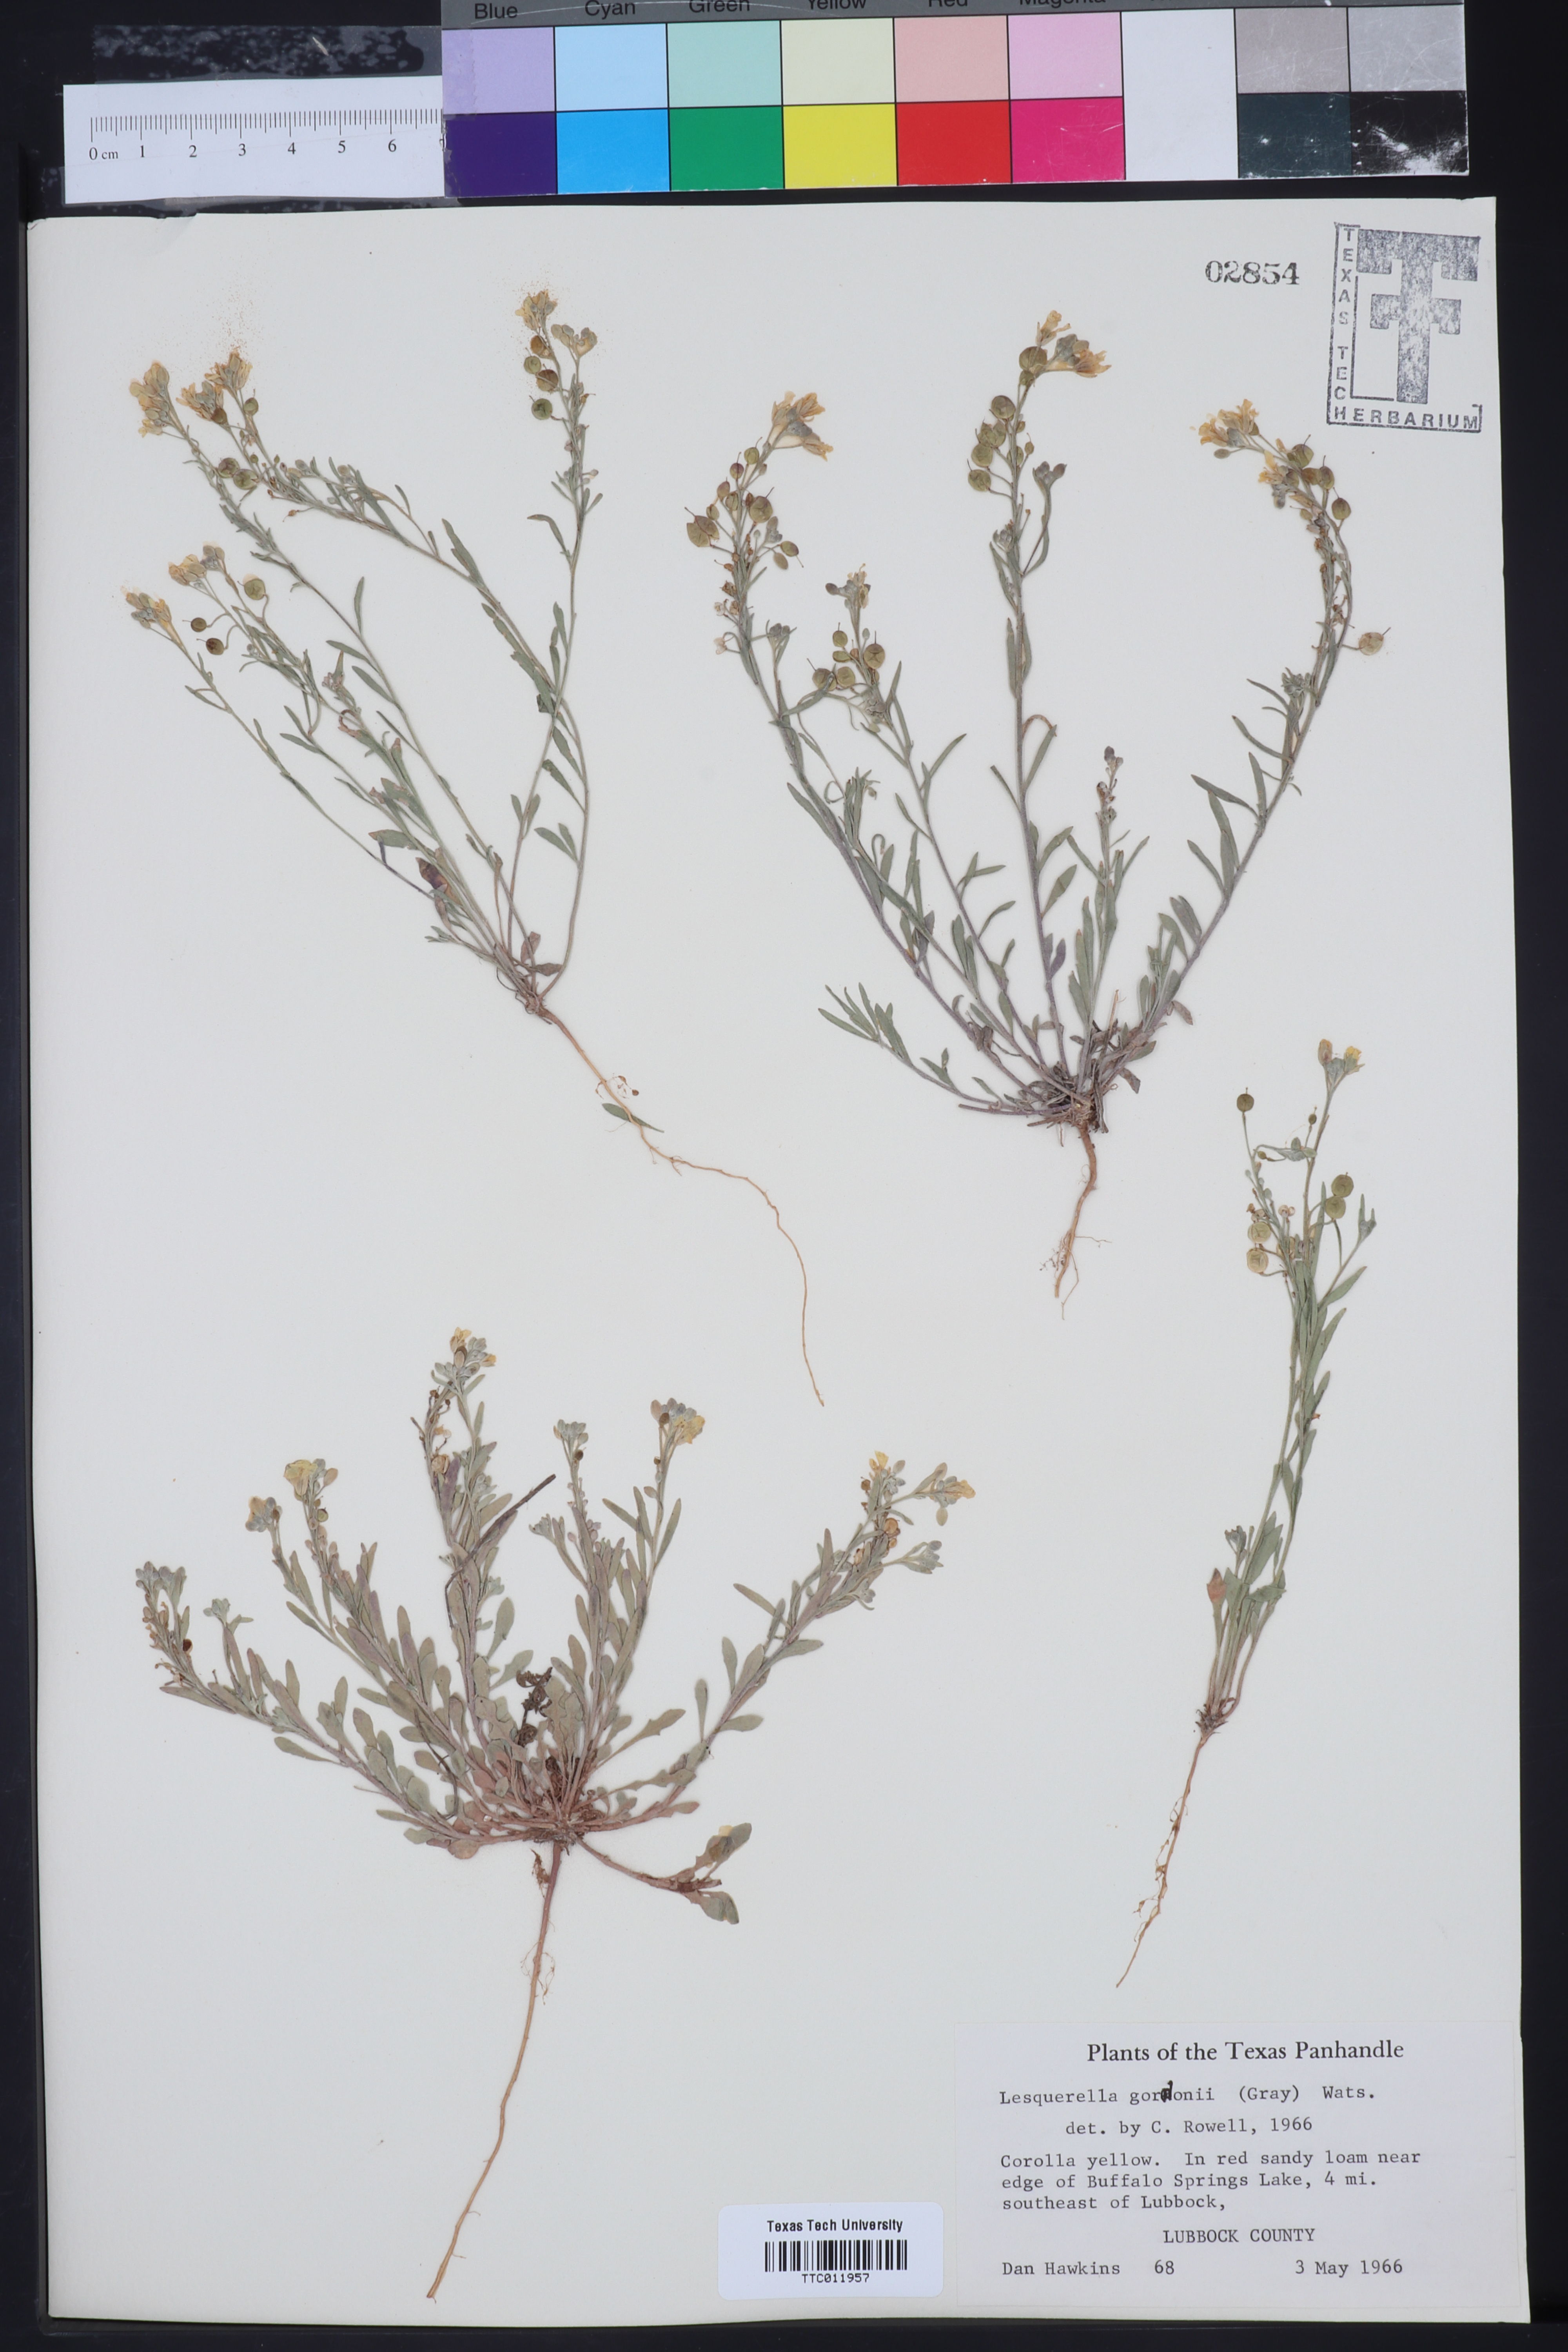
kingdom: Plantae
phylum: Tracheophyta
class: Magnoliopsida
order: Brassicales
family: Brassicaceae
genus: Physaria
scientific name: Physaria gordonii
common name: Gordon's bladderpod
